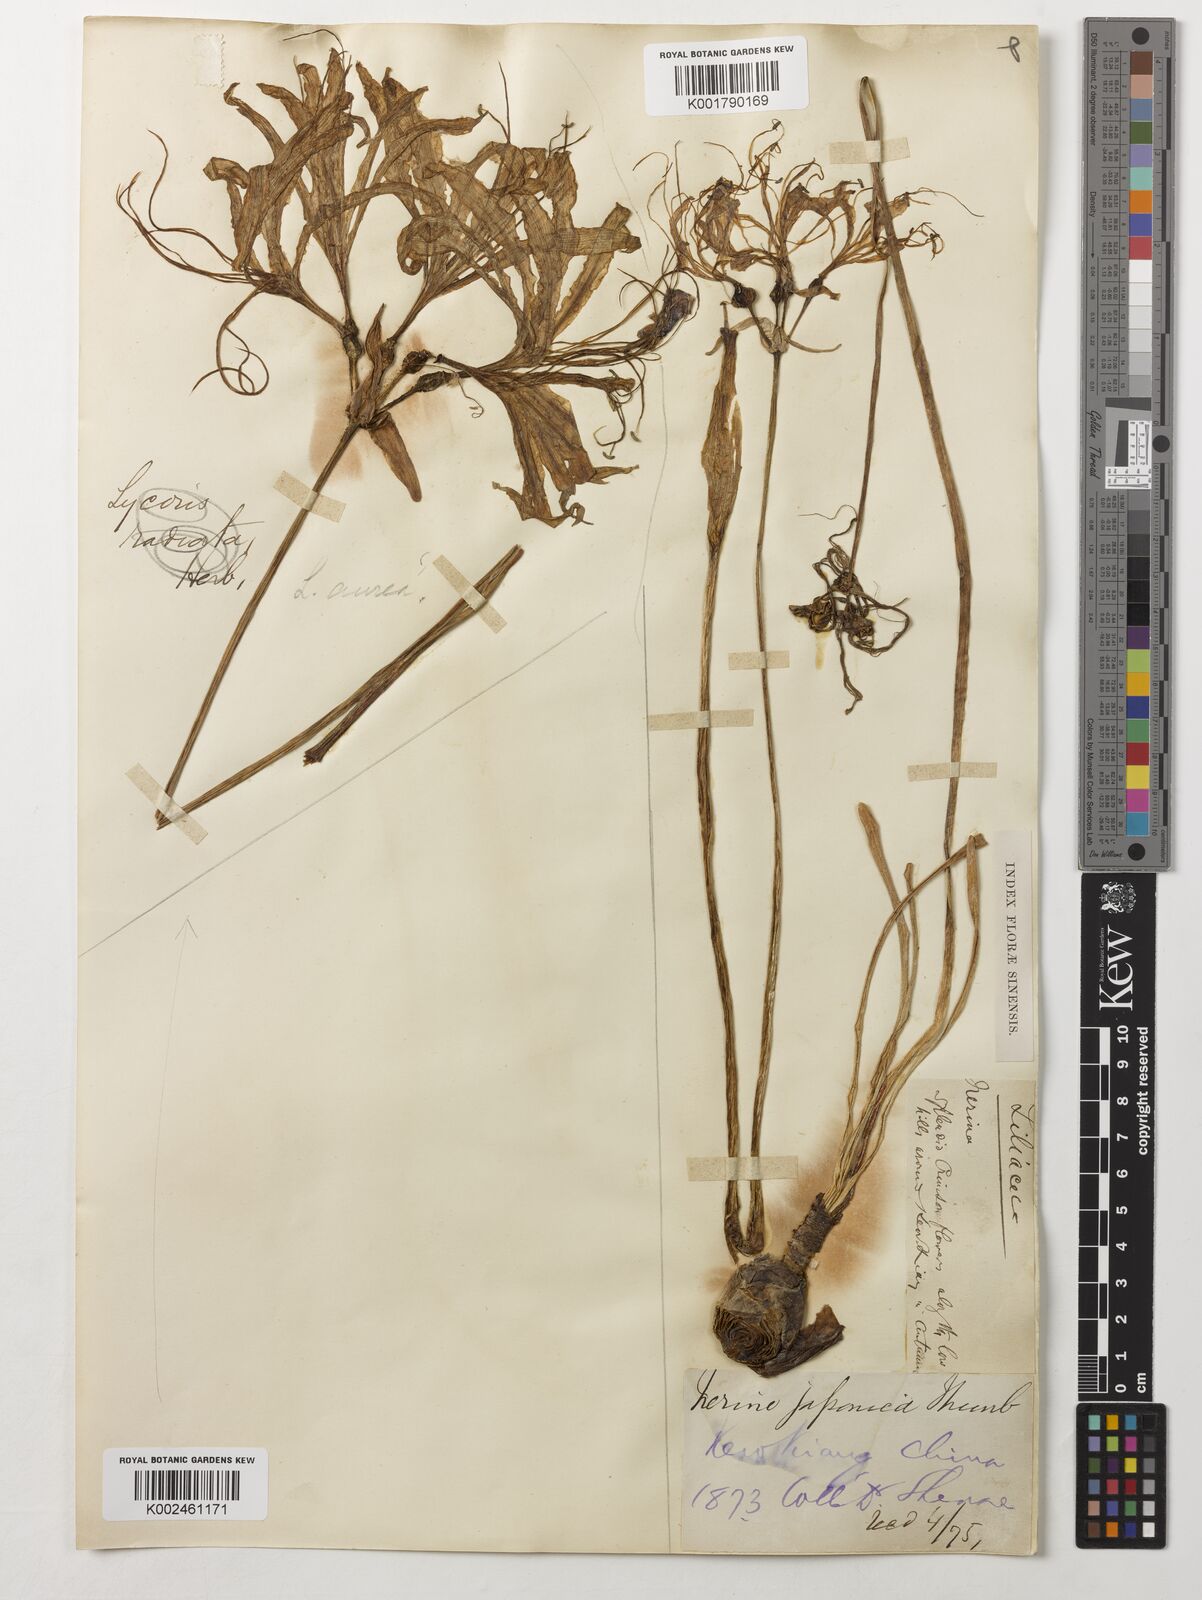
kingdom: Plantae
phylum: Tracheophyta
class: Liliopsida
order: Asparagales
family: Amaryllidaceae
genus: Lycoris
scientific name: Lycoris radiata
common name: Red spider lily
